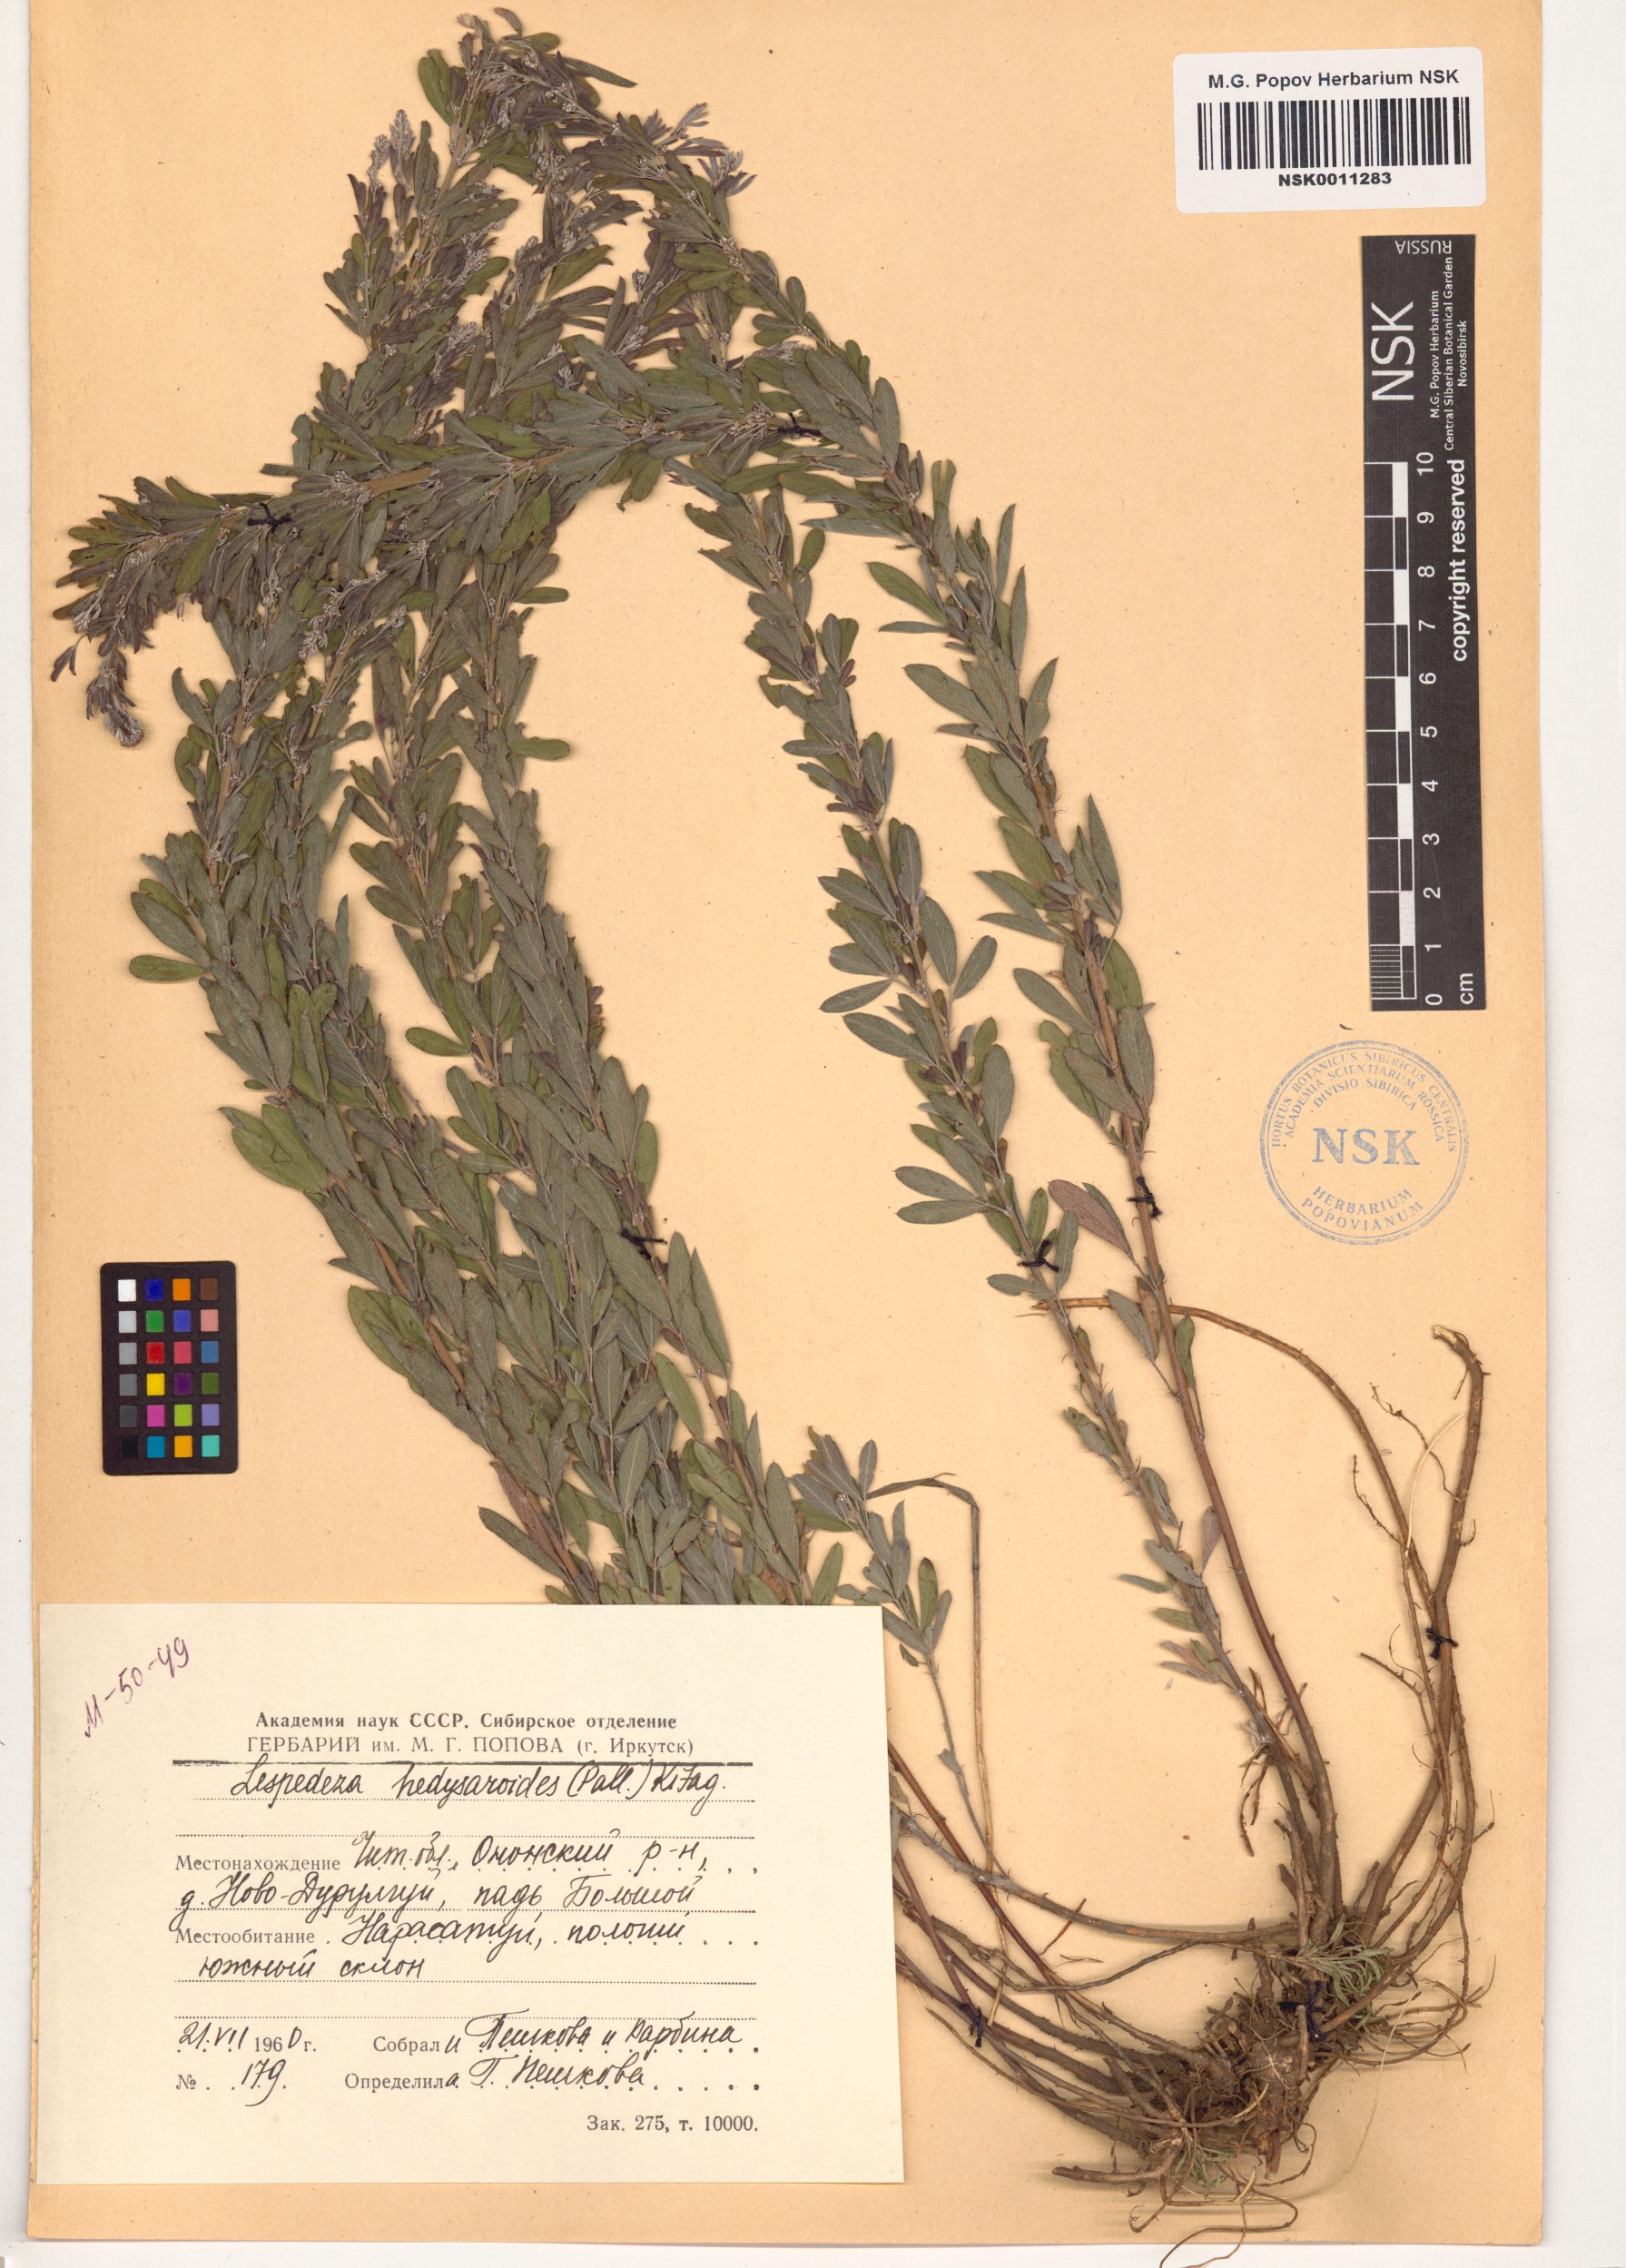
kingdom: Plantae
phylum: Tracheophyta
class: Magnoliopsida
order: Fabales
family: Fabaceae
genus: Lespedeza
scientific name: Lespedeza juncea
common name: Siberian lespedeza
